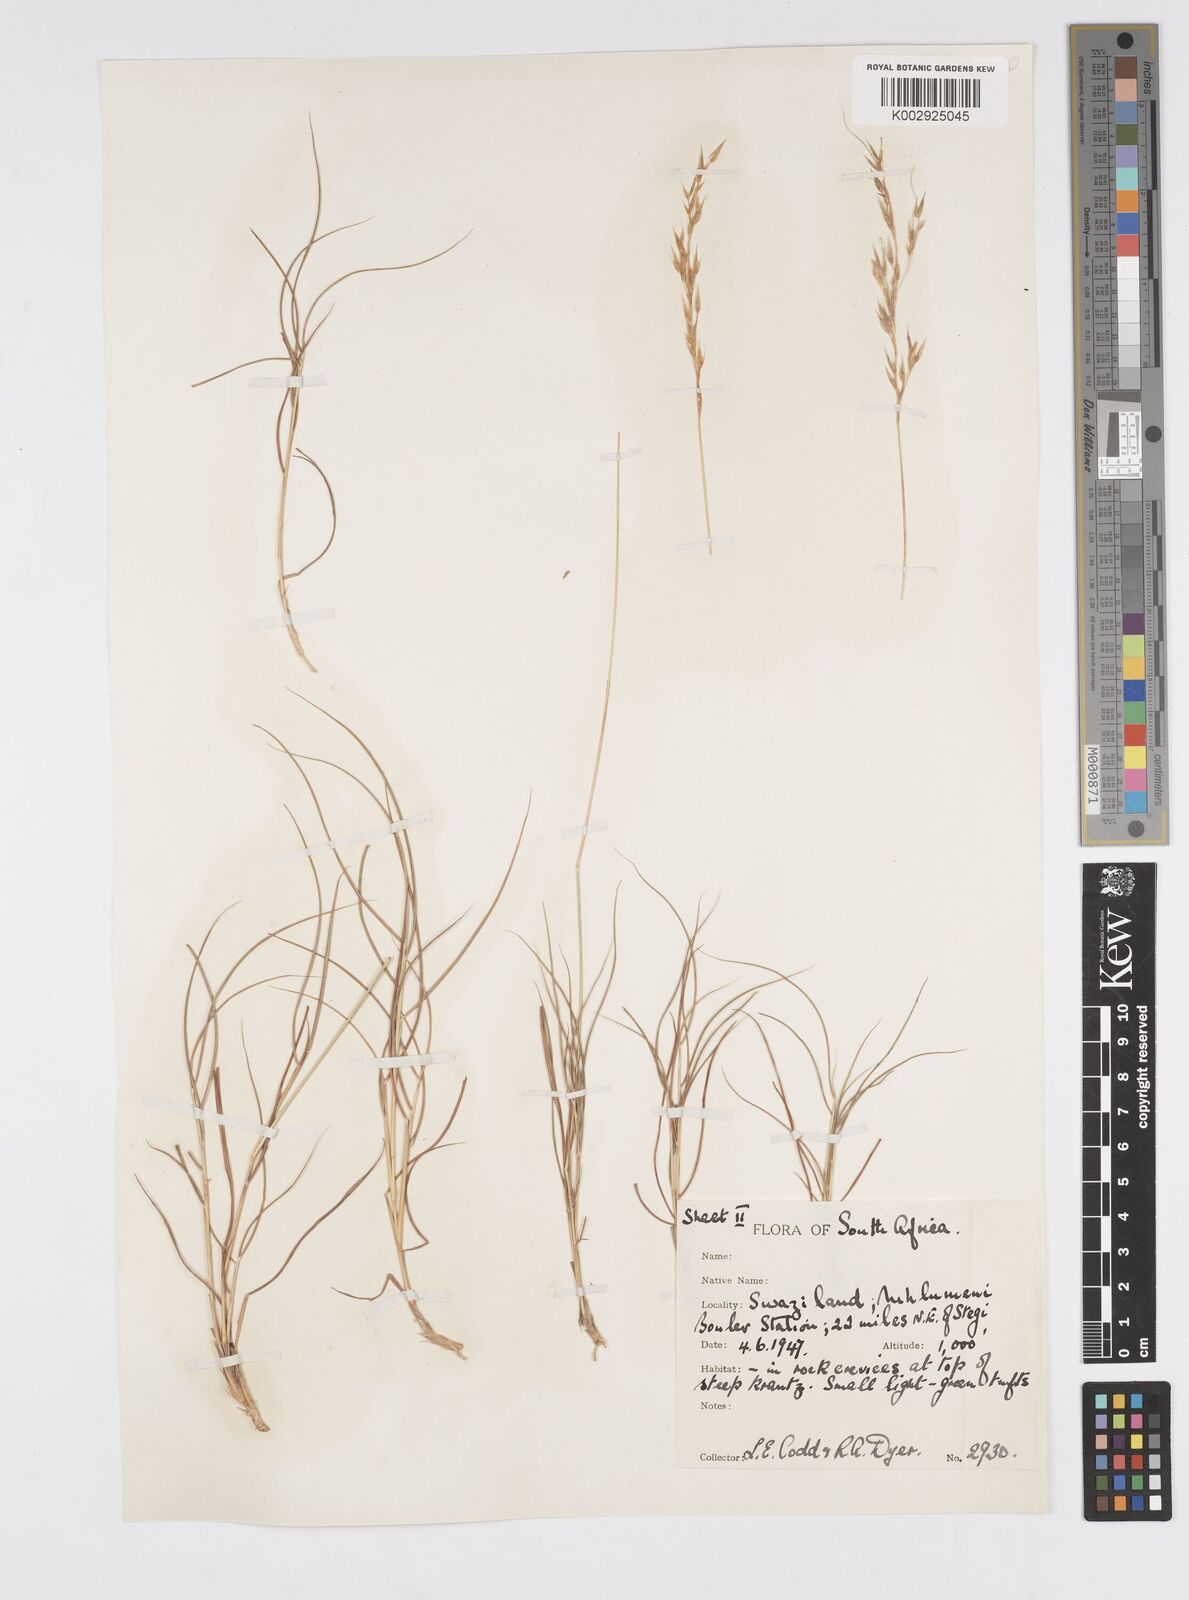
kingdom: Plantae
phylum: Tracheophyta
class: Liliopsida
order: Poales
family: Poaceae
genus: Loudetia
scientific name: Loudetia filifolia
